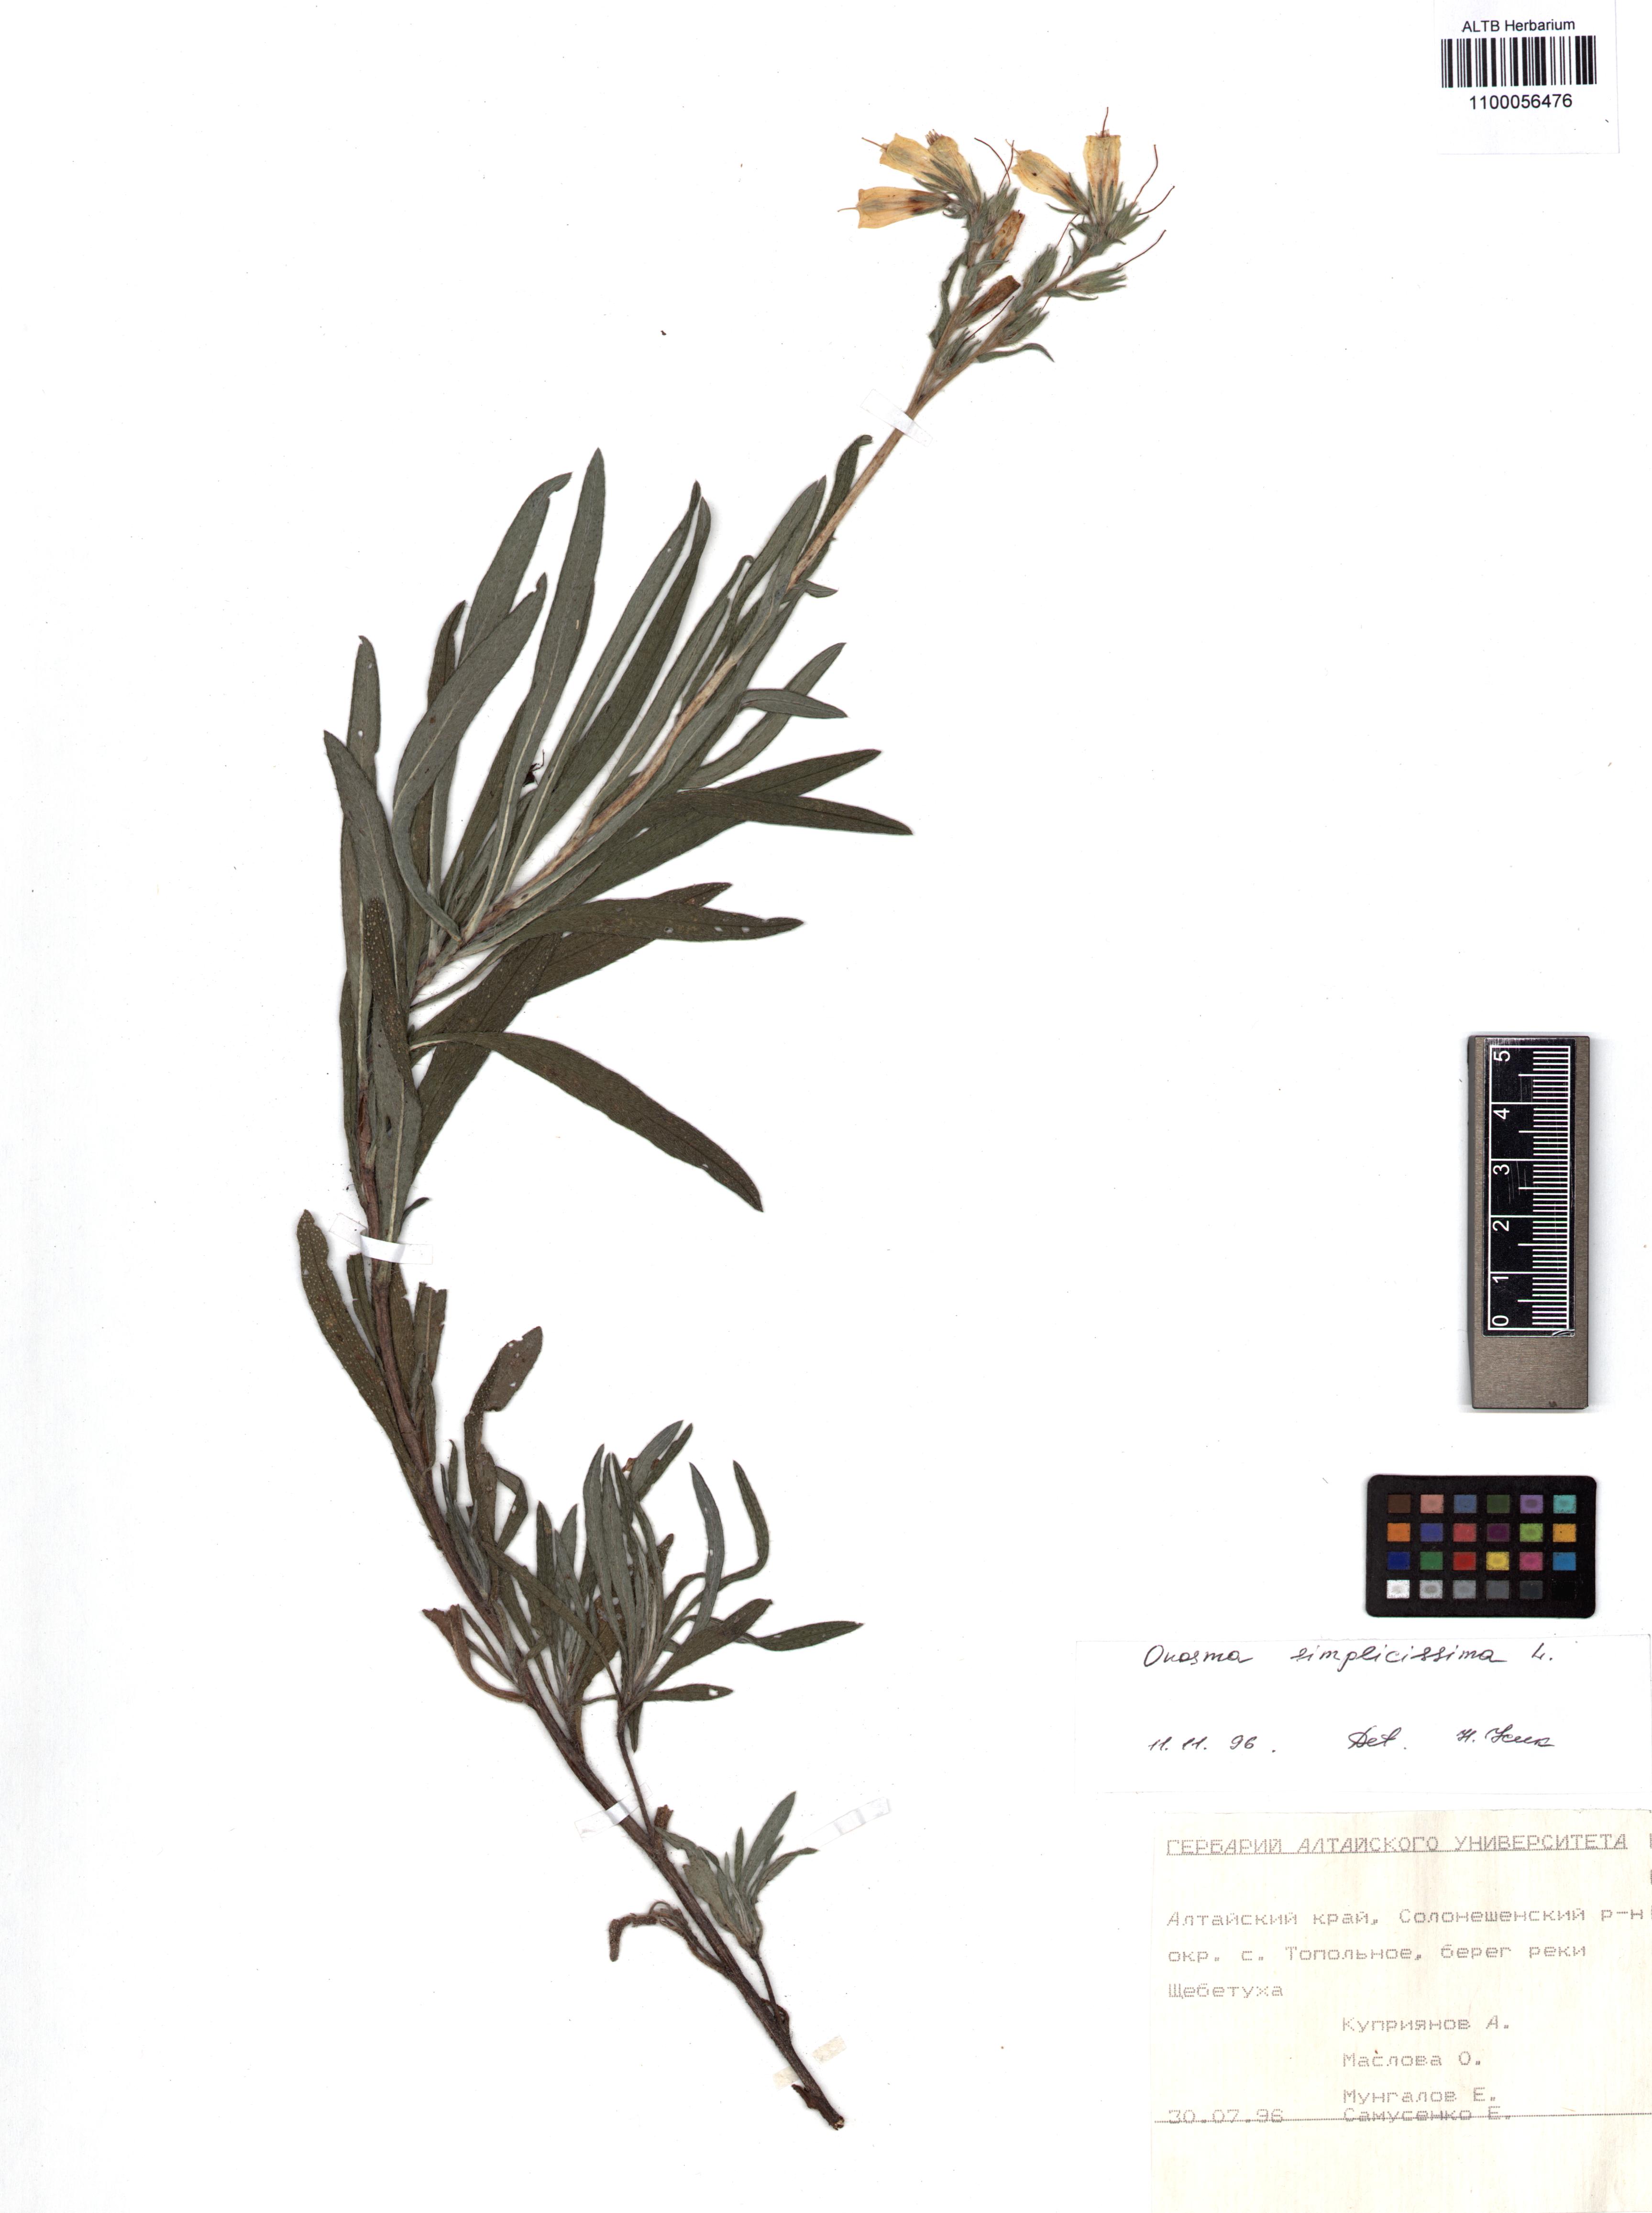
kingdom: Plantae
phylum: Tracheophyta
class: Magnoliopsida
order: Boraginales
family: Boraginaceae
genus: Onosma
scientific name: Onosma simplicissima
